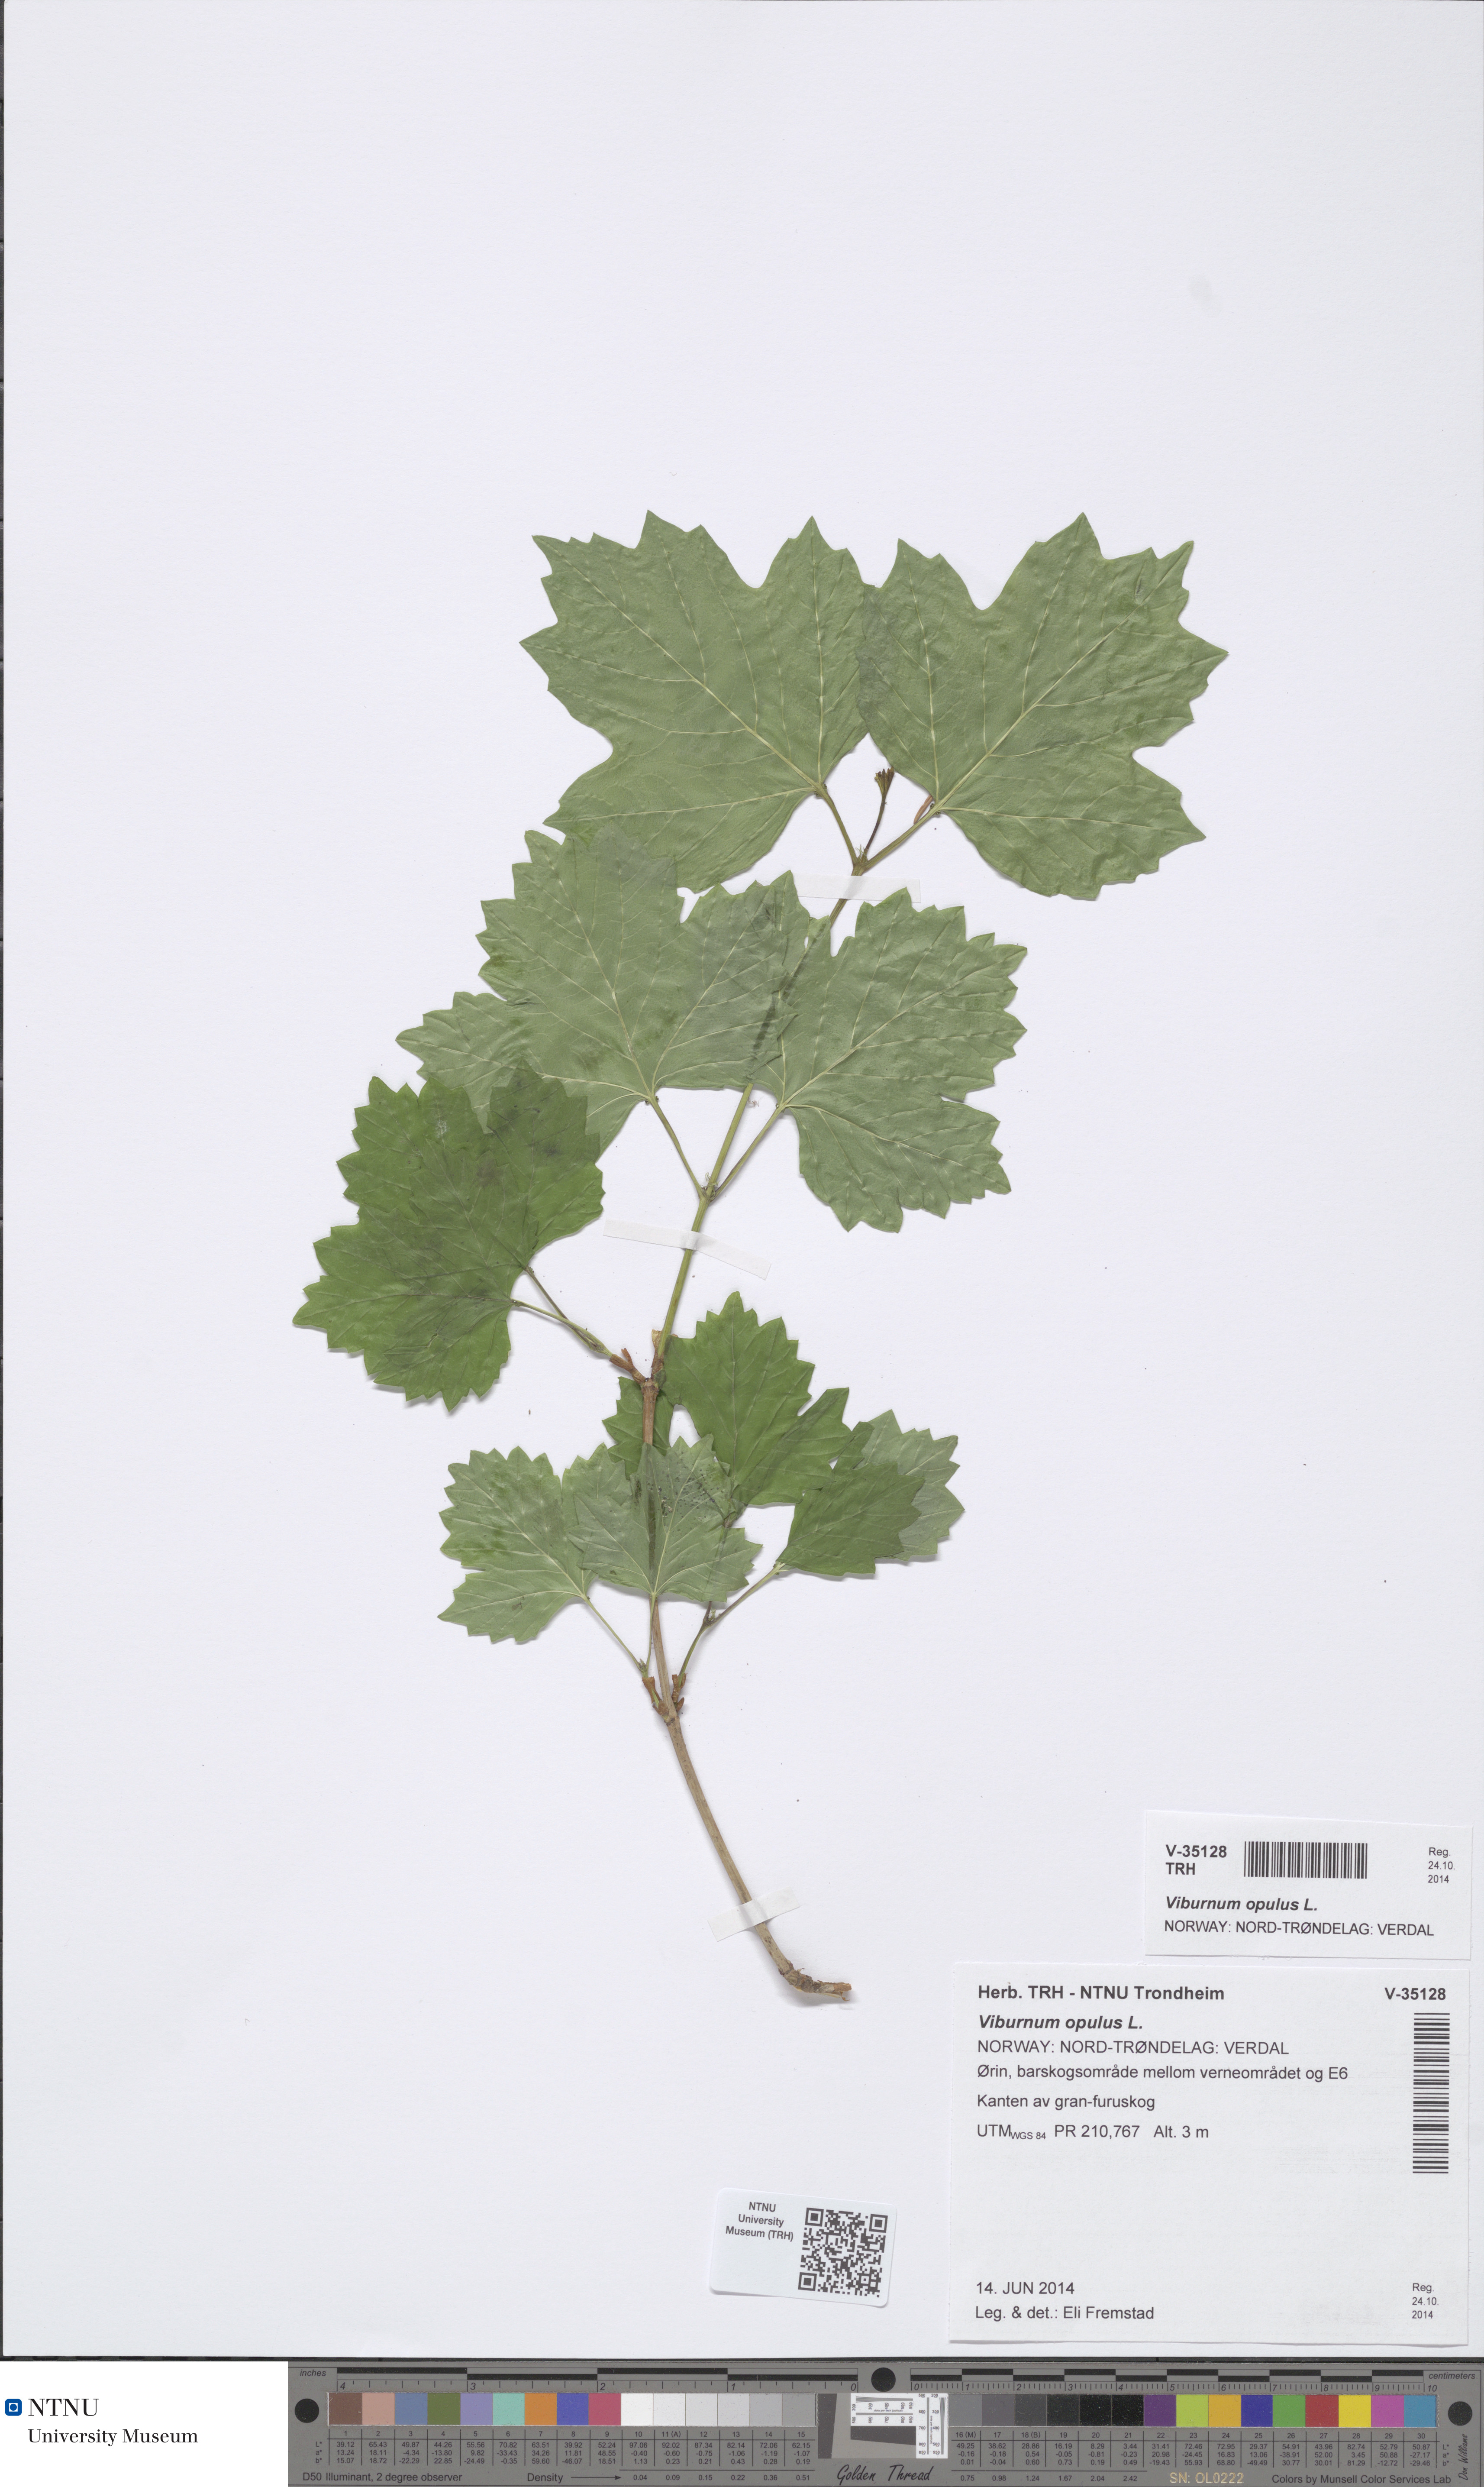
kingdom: Plantae
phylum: Tracheophyta
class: Magnoliopsida
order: Dipsacales
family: Viburnaceae
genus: Viburnum
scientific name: Viburnum opulus
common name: Guelder-rose
